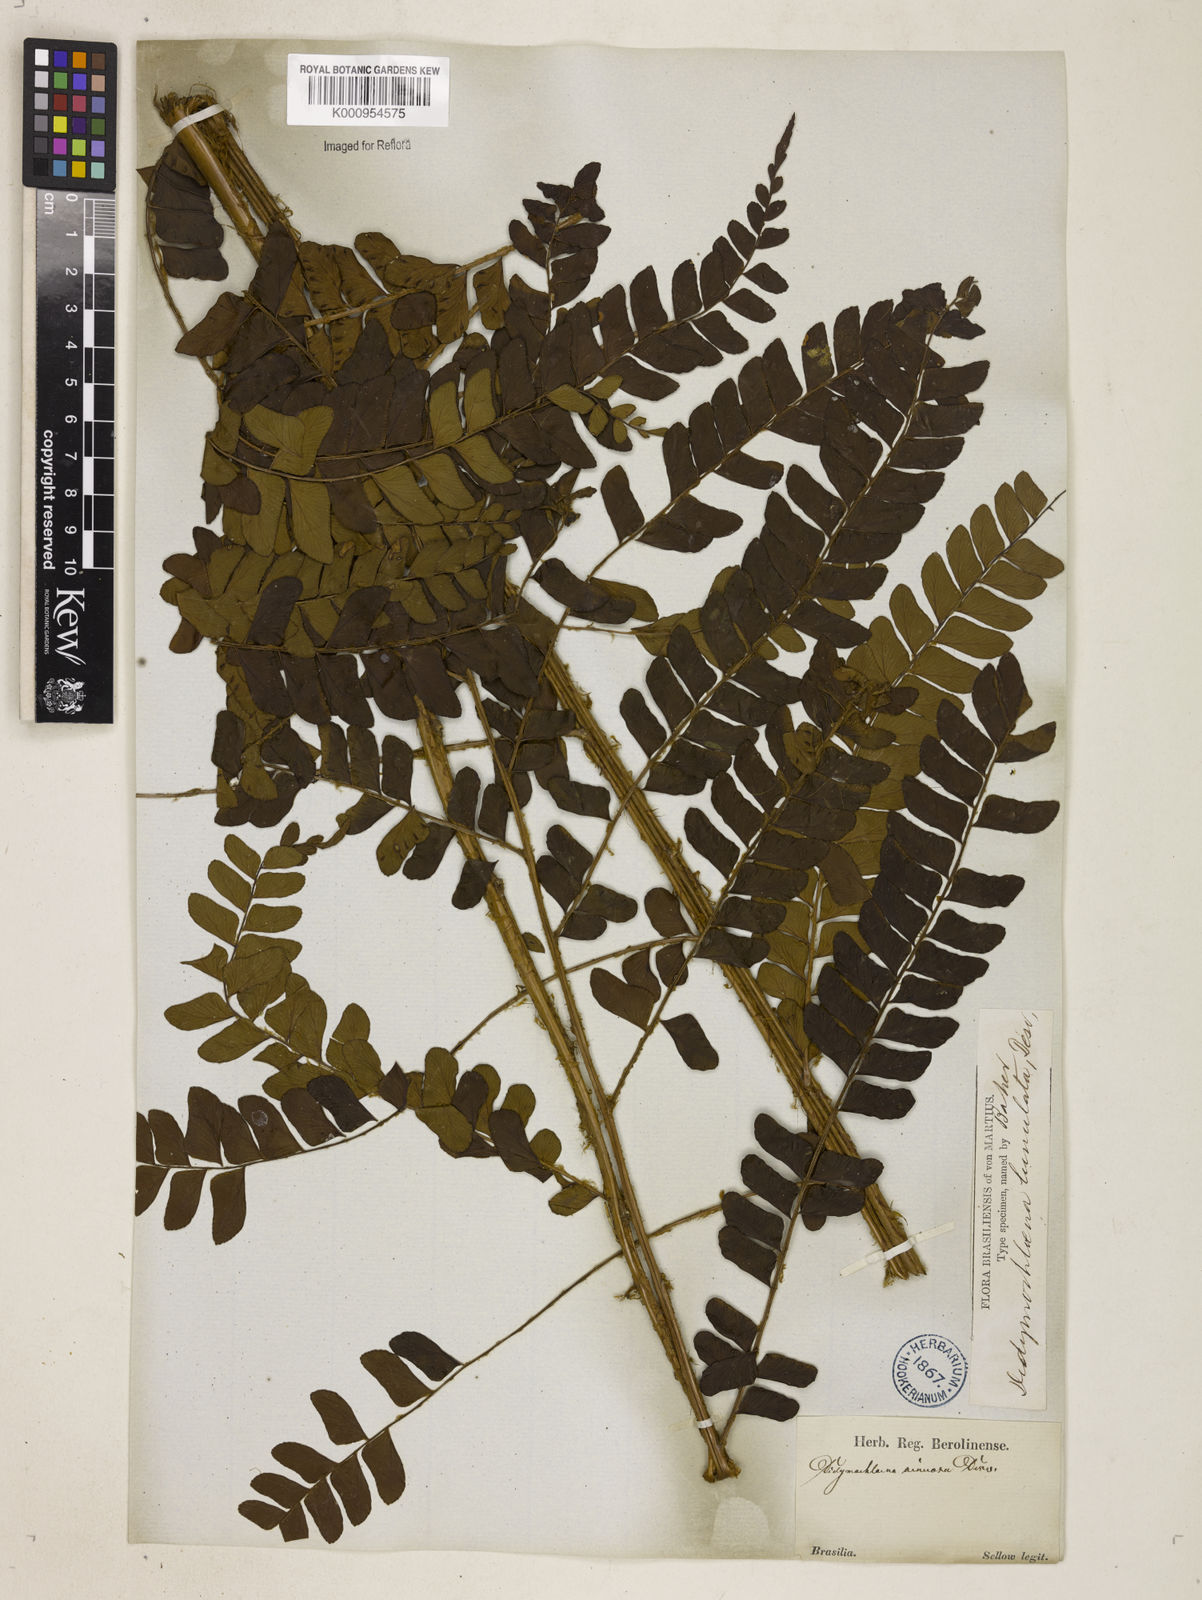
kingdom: Plantae
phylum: Tracheophyta
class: Polypodiopsida
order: Polypodiales
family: Didymochlaenaceae
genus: Didymochlaena
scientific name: Didymochlaena truncatula
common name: Mahogany fern
